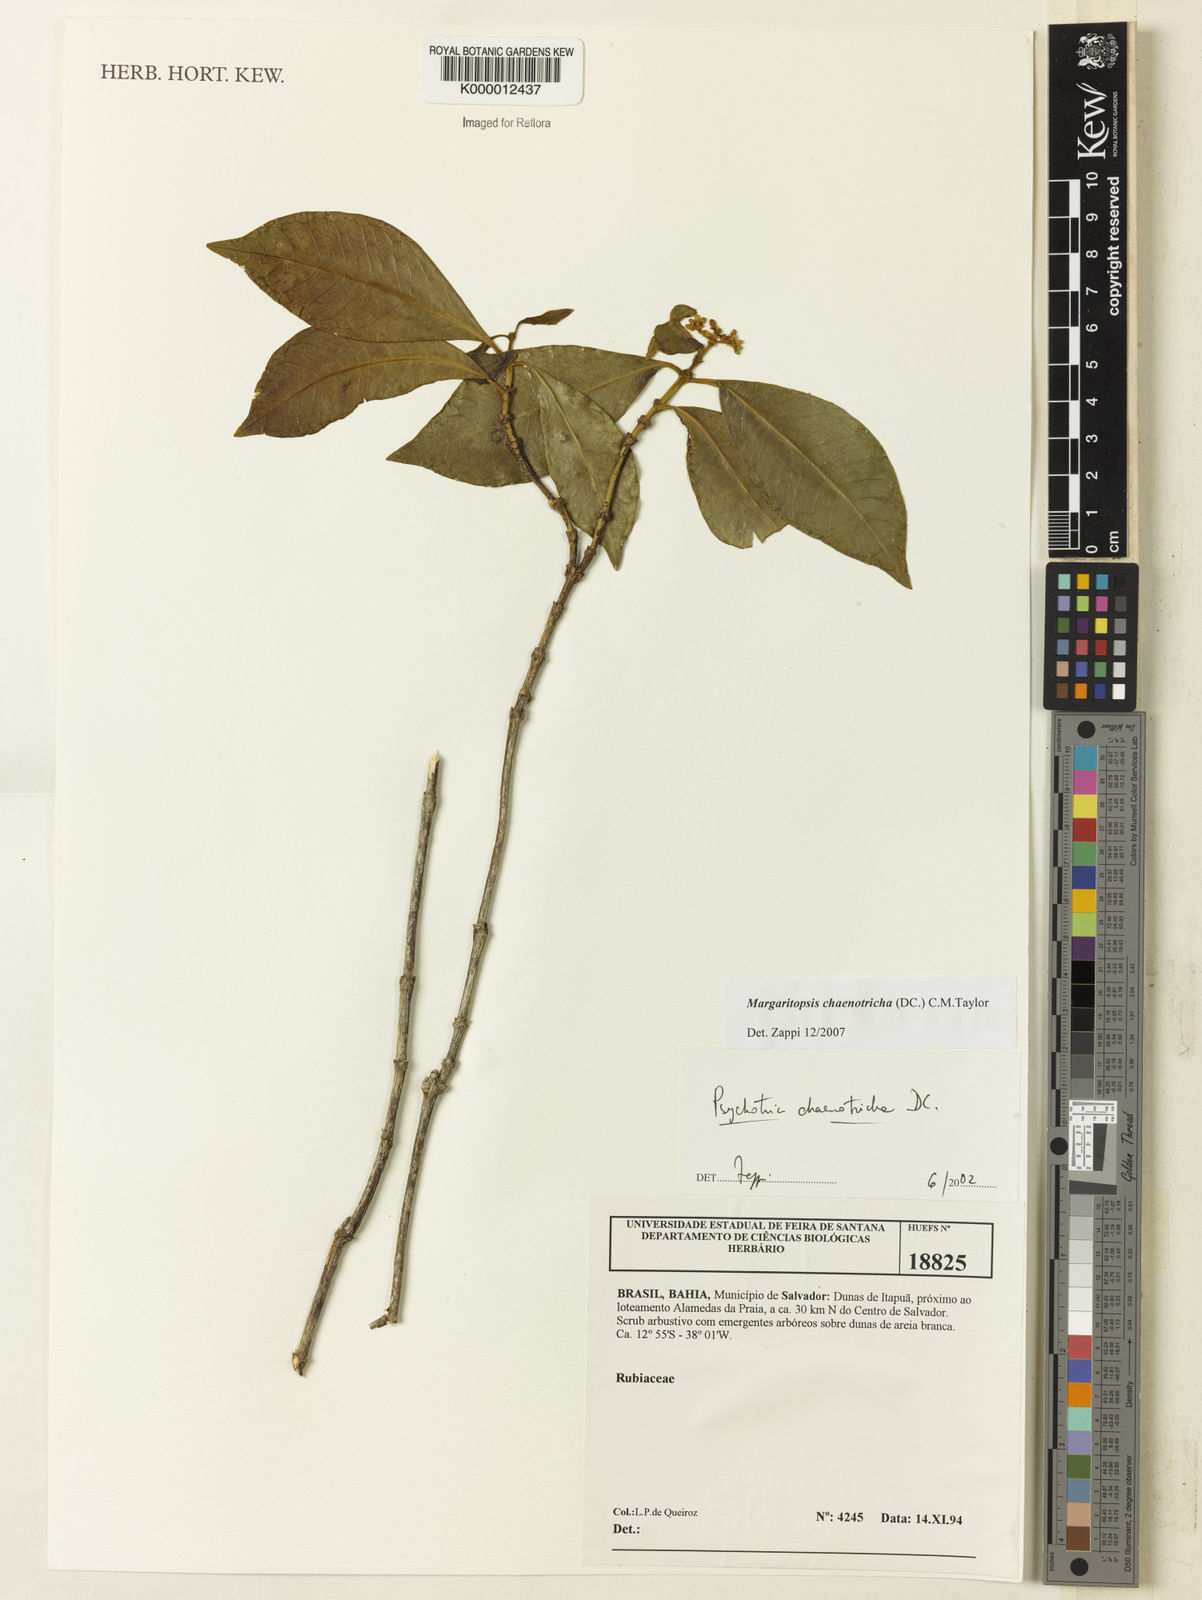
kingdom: Plantae
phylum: Tracheophyta
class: Magnoliopsida
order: Gentianales
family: Rubiaceae
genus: Eumachia
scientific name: Eumachia chaenotricha
